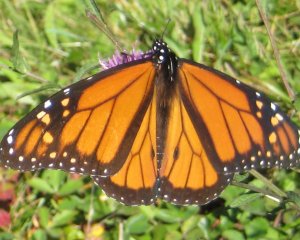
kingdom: Animalia
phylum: Arthropoda
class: Insecta
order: Lepidoptera
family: Nymphalidae
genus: Danaus
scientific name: Danaus plexippus
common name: Monarch
